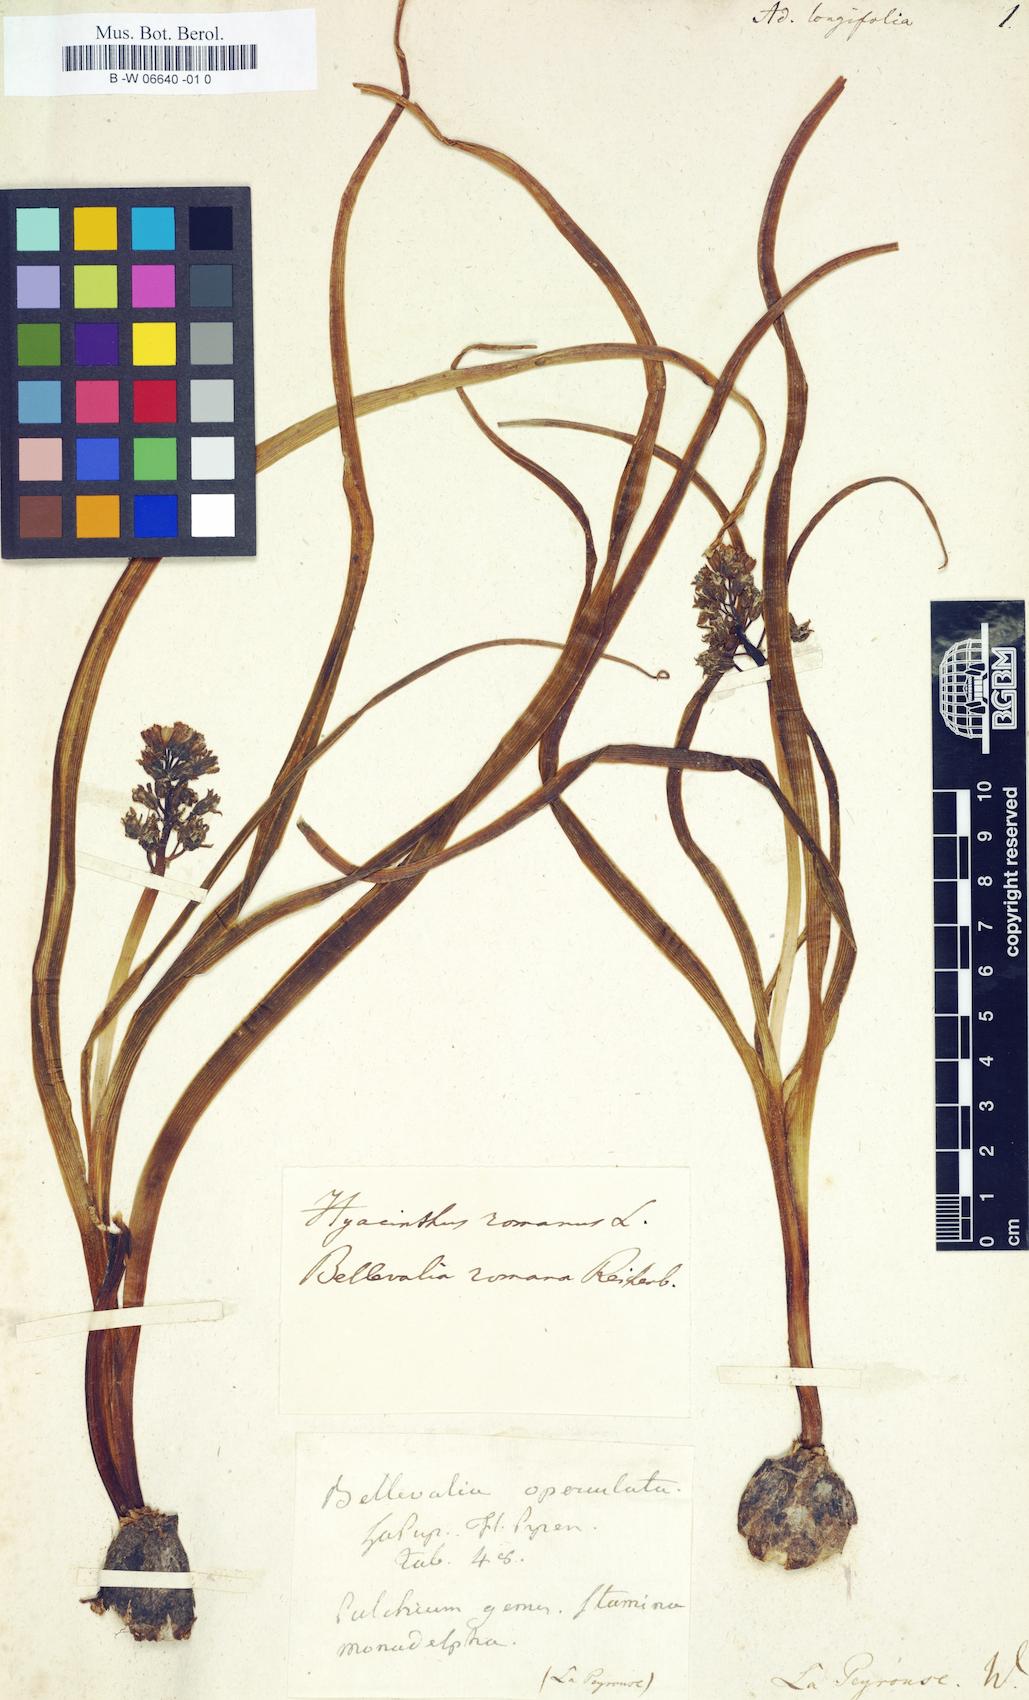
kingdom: Plantae
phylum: Tracheophyta
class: Liliopsida
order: Liliales
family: Liliaceae
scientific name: Liliaceae
